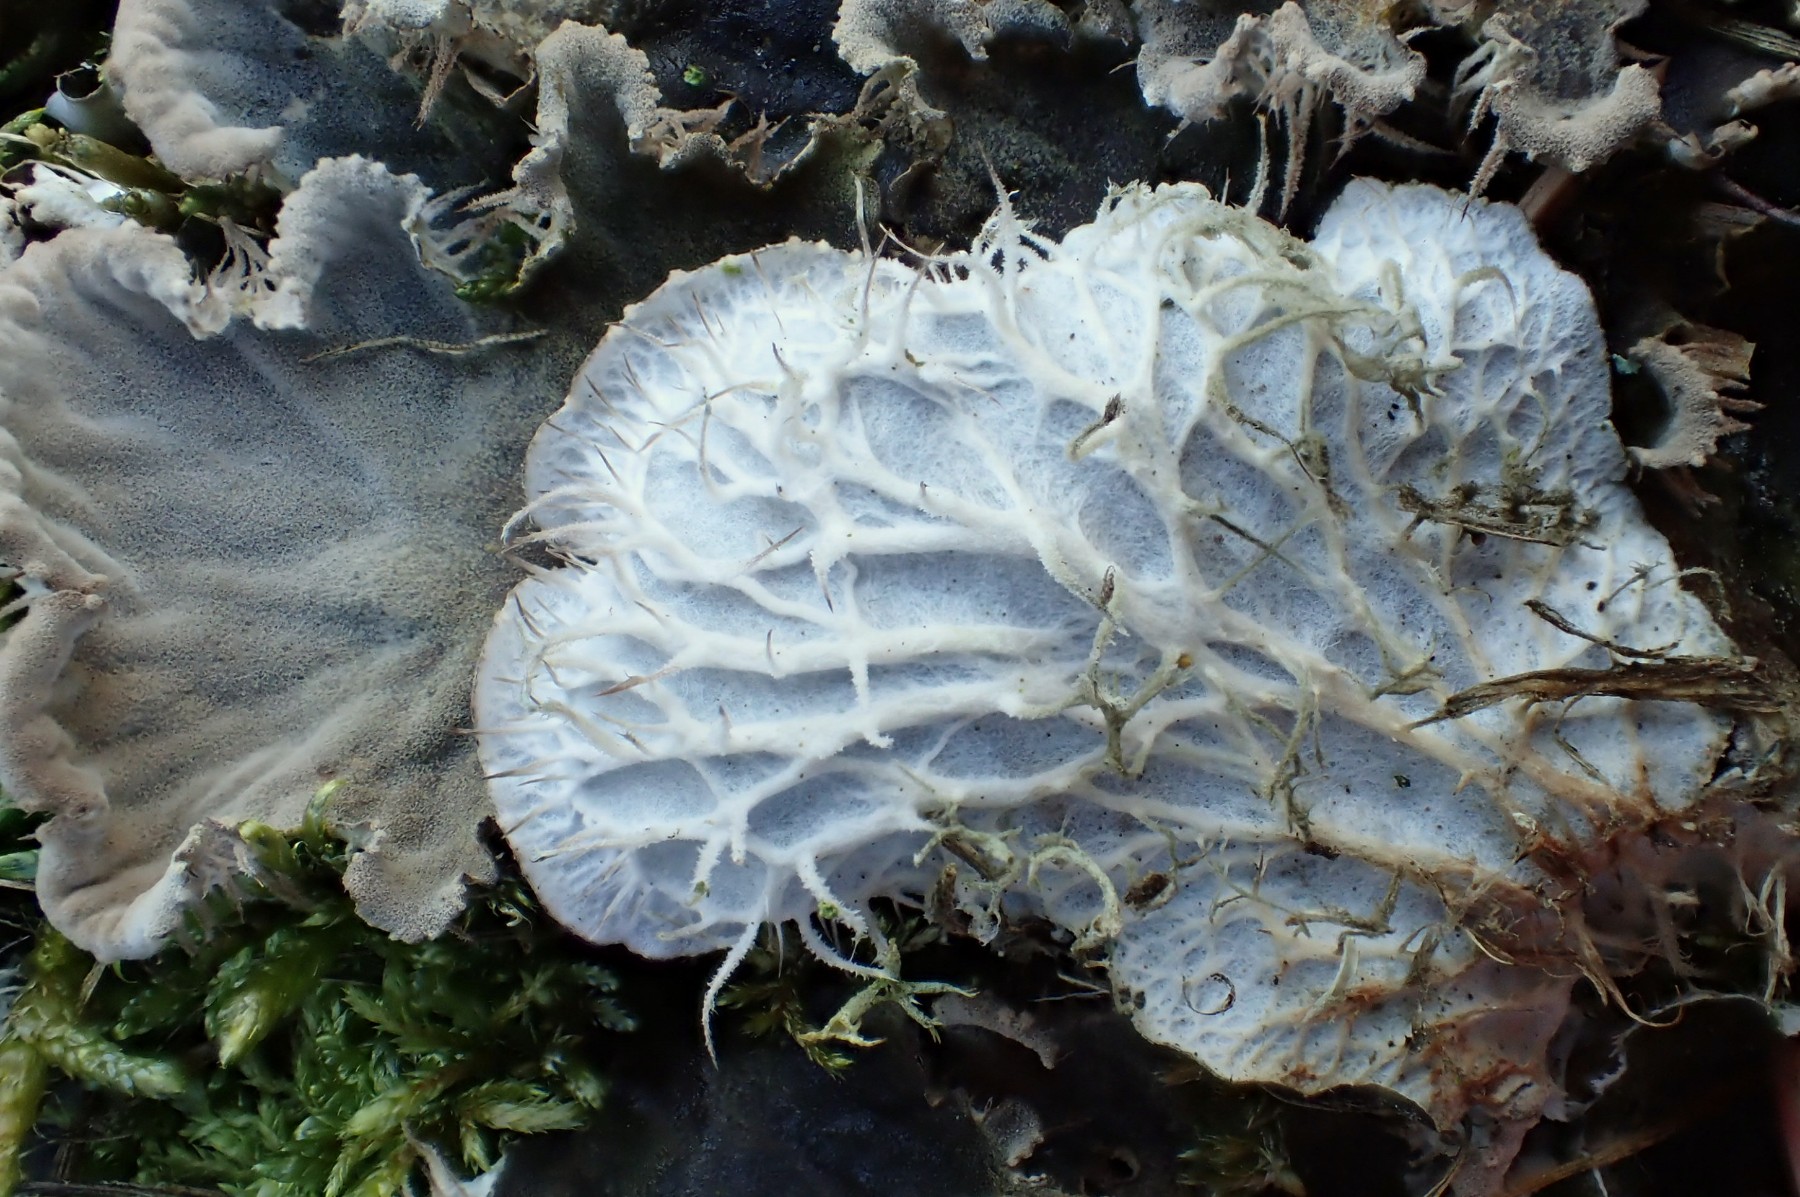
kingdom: Fungi
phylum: Ascomycota
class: Lecanoromycetes
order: Peltigerales
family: Peltigeraceae
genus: Peltigera
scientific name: Peltigera membranacea
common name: tynd skjoldlav
